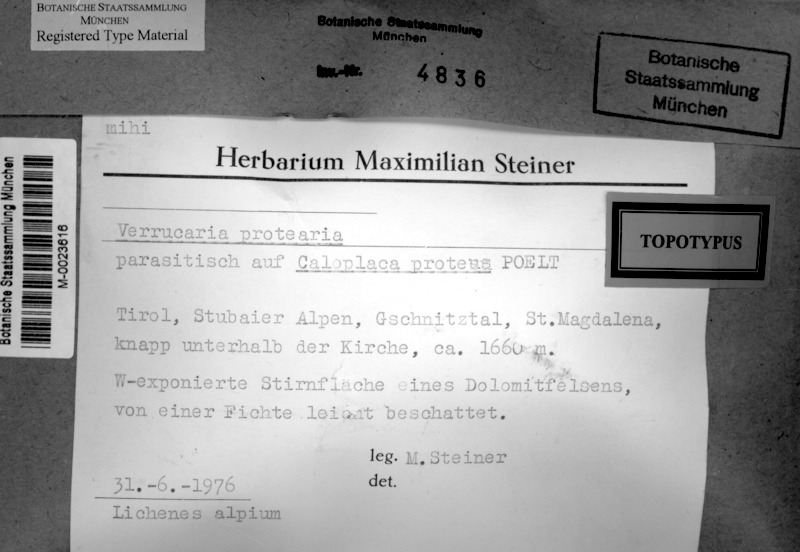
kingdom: Fungi
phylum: Ascomycota
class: Lecanoromycetes
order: Teloschistales
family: Teloschistaceae
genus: Leproplaca
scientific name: Leproplaca proteus
